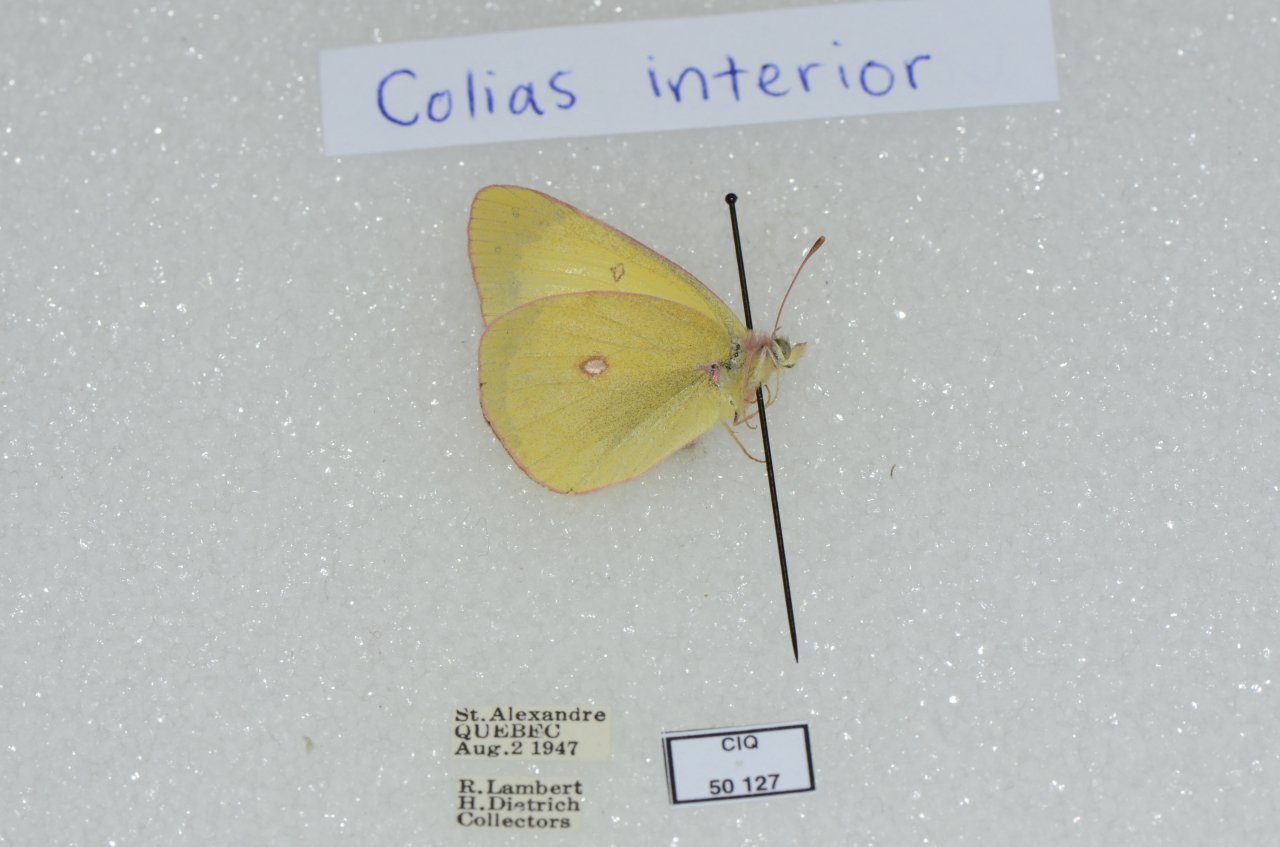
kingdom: Animalia
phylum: Arthropoda
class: Insecta
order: Lepidoptera
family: Pieridae
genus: Colias
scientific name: Colias interior
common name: Pink-edged Sulphur
